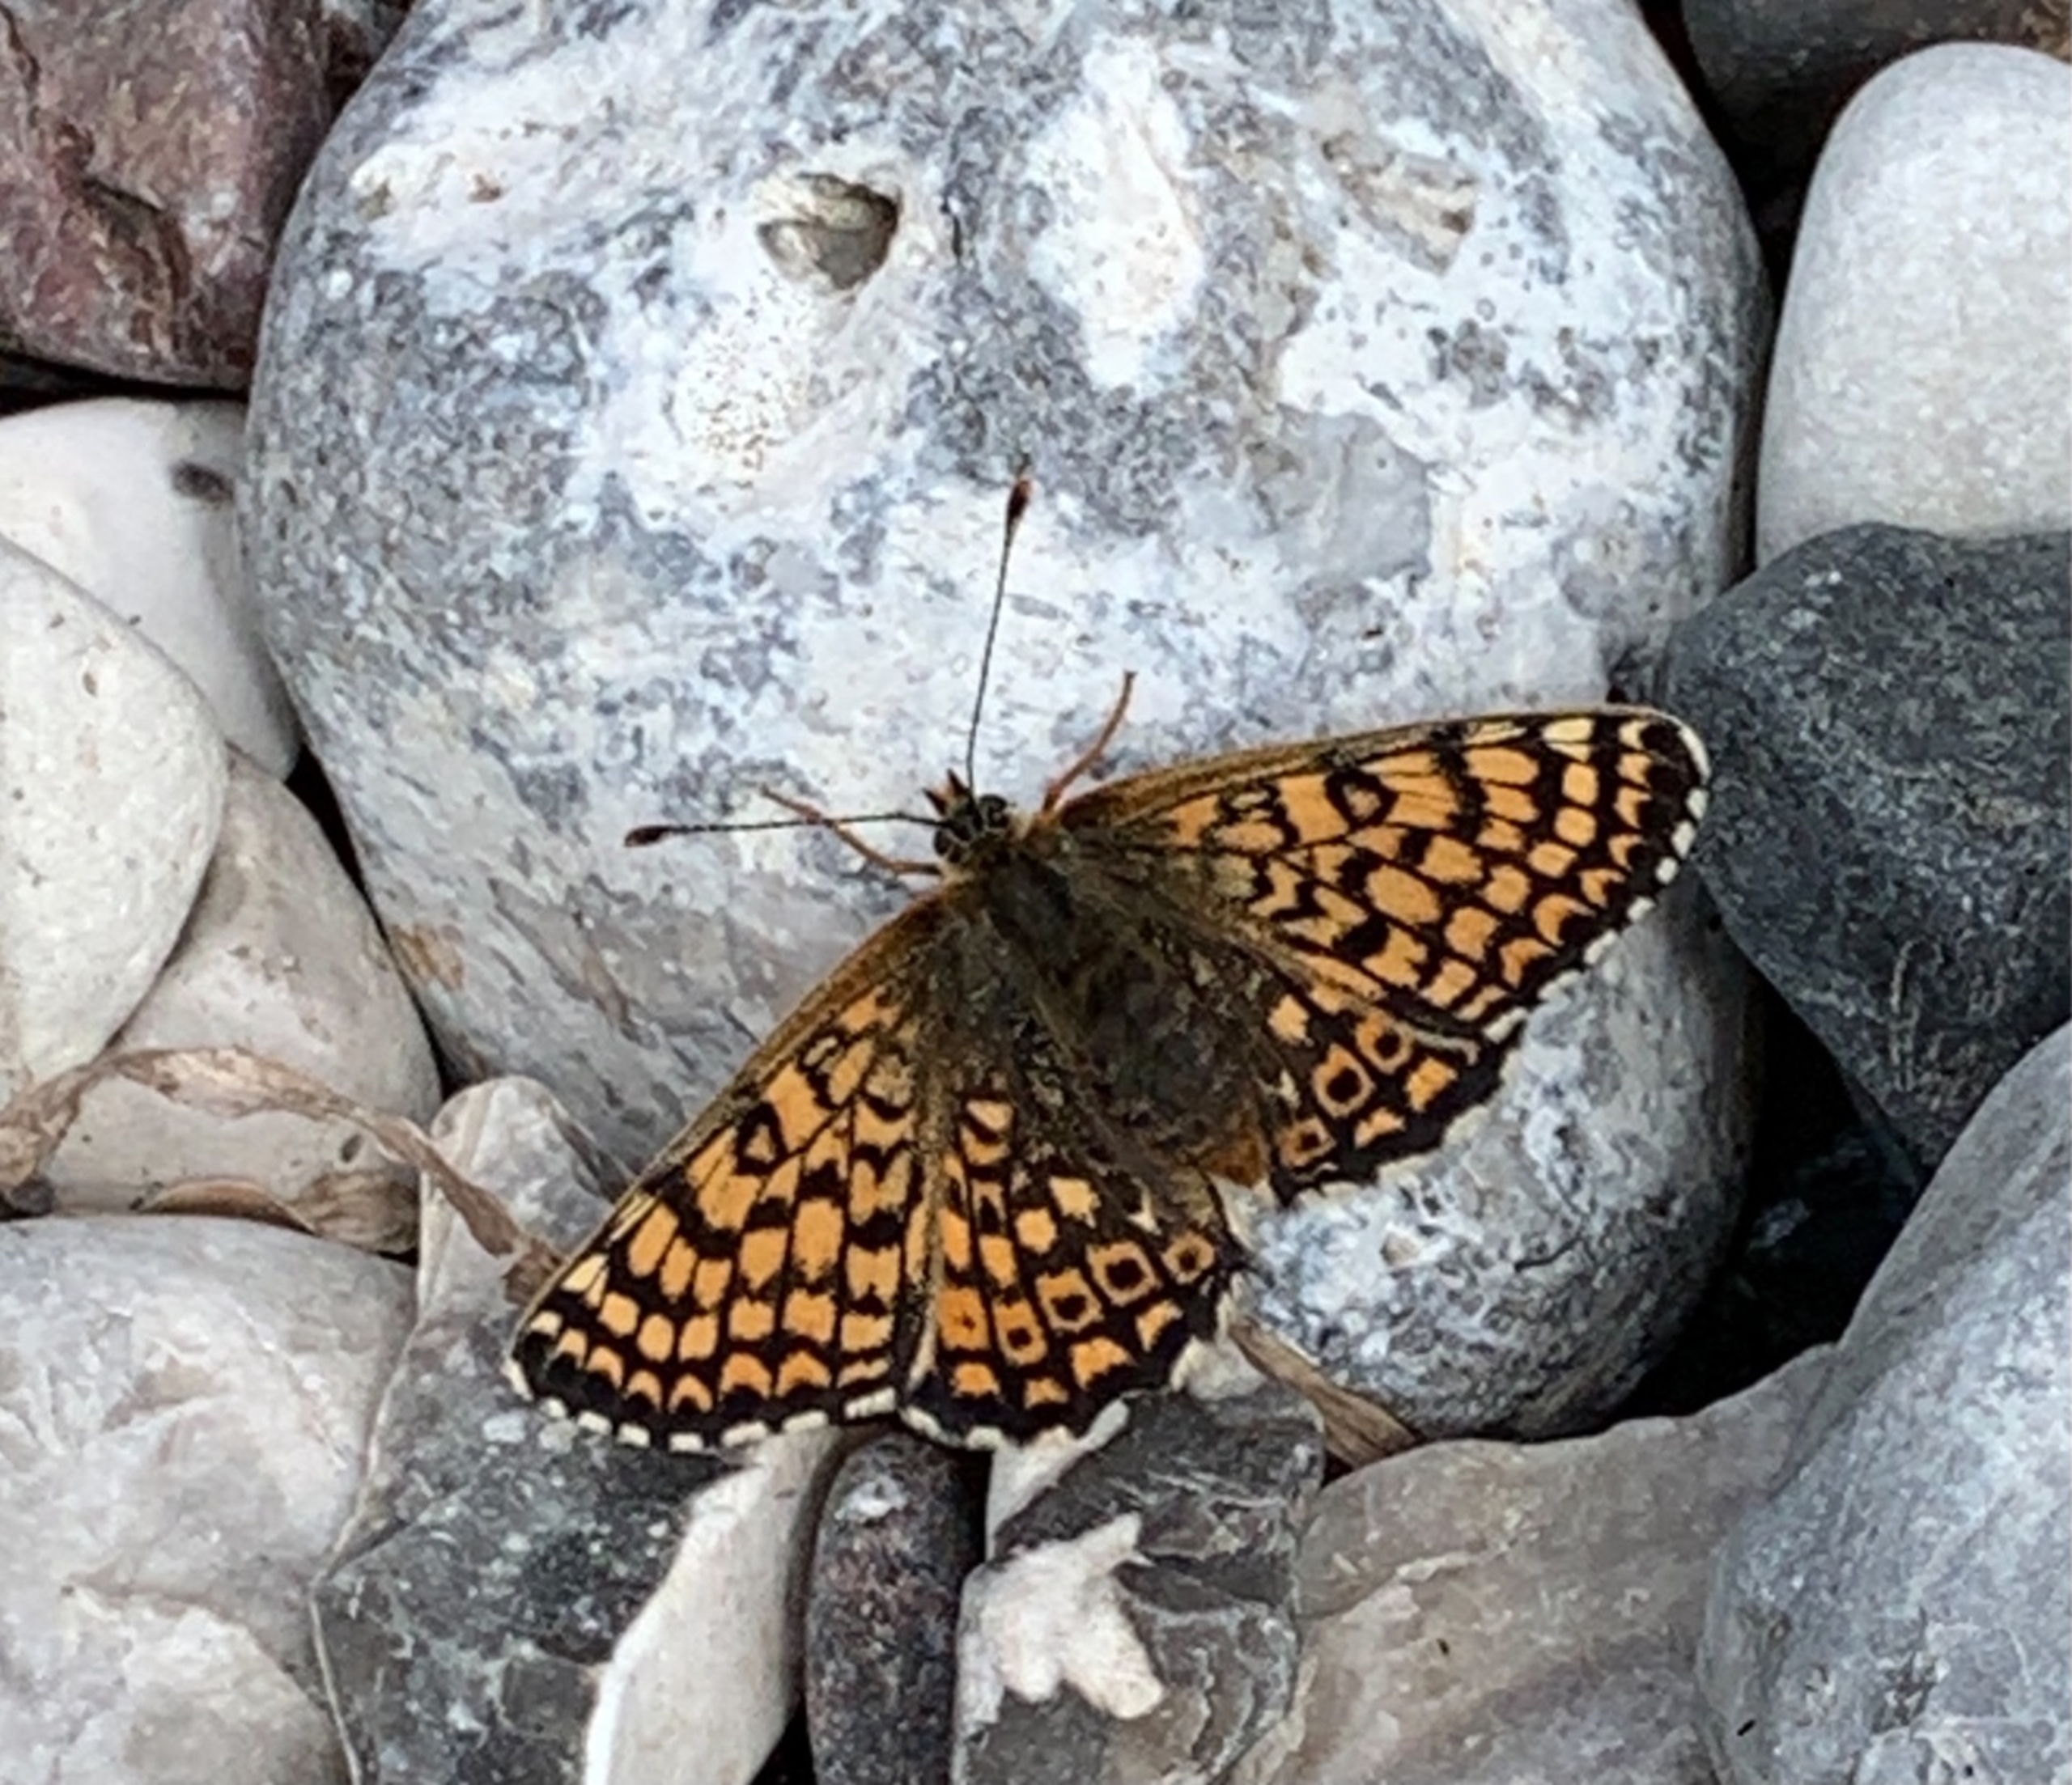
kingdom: Animalia
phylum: Arthropoda
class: Insecta
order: Lepidoptera
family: Nymphalidae
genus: Melitaea
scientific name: Melitaea cinxia
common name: Okkergul pletvinge
